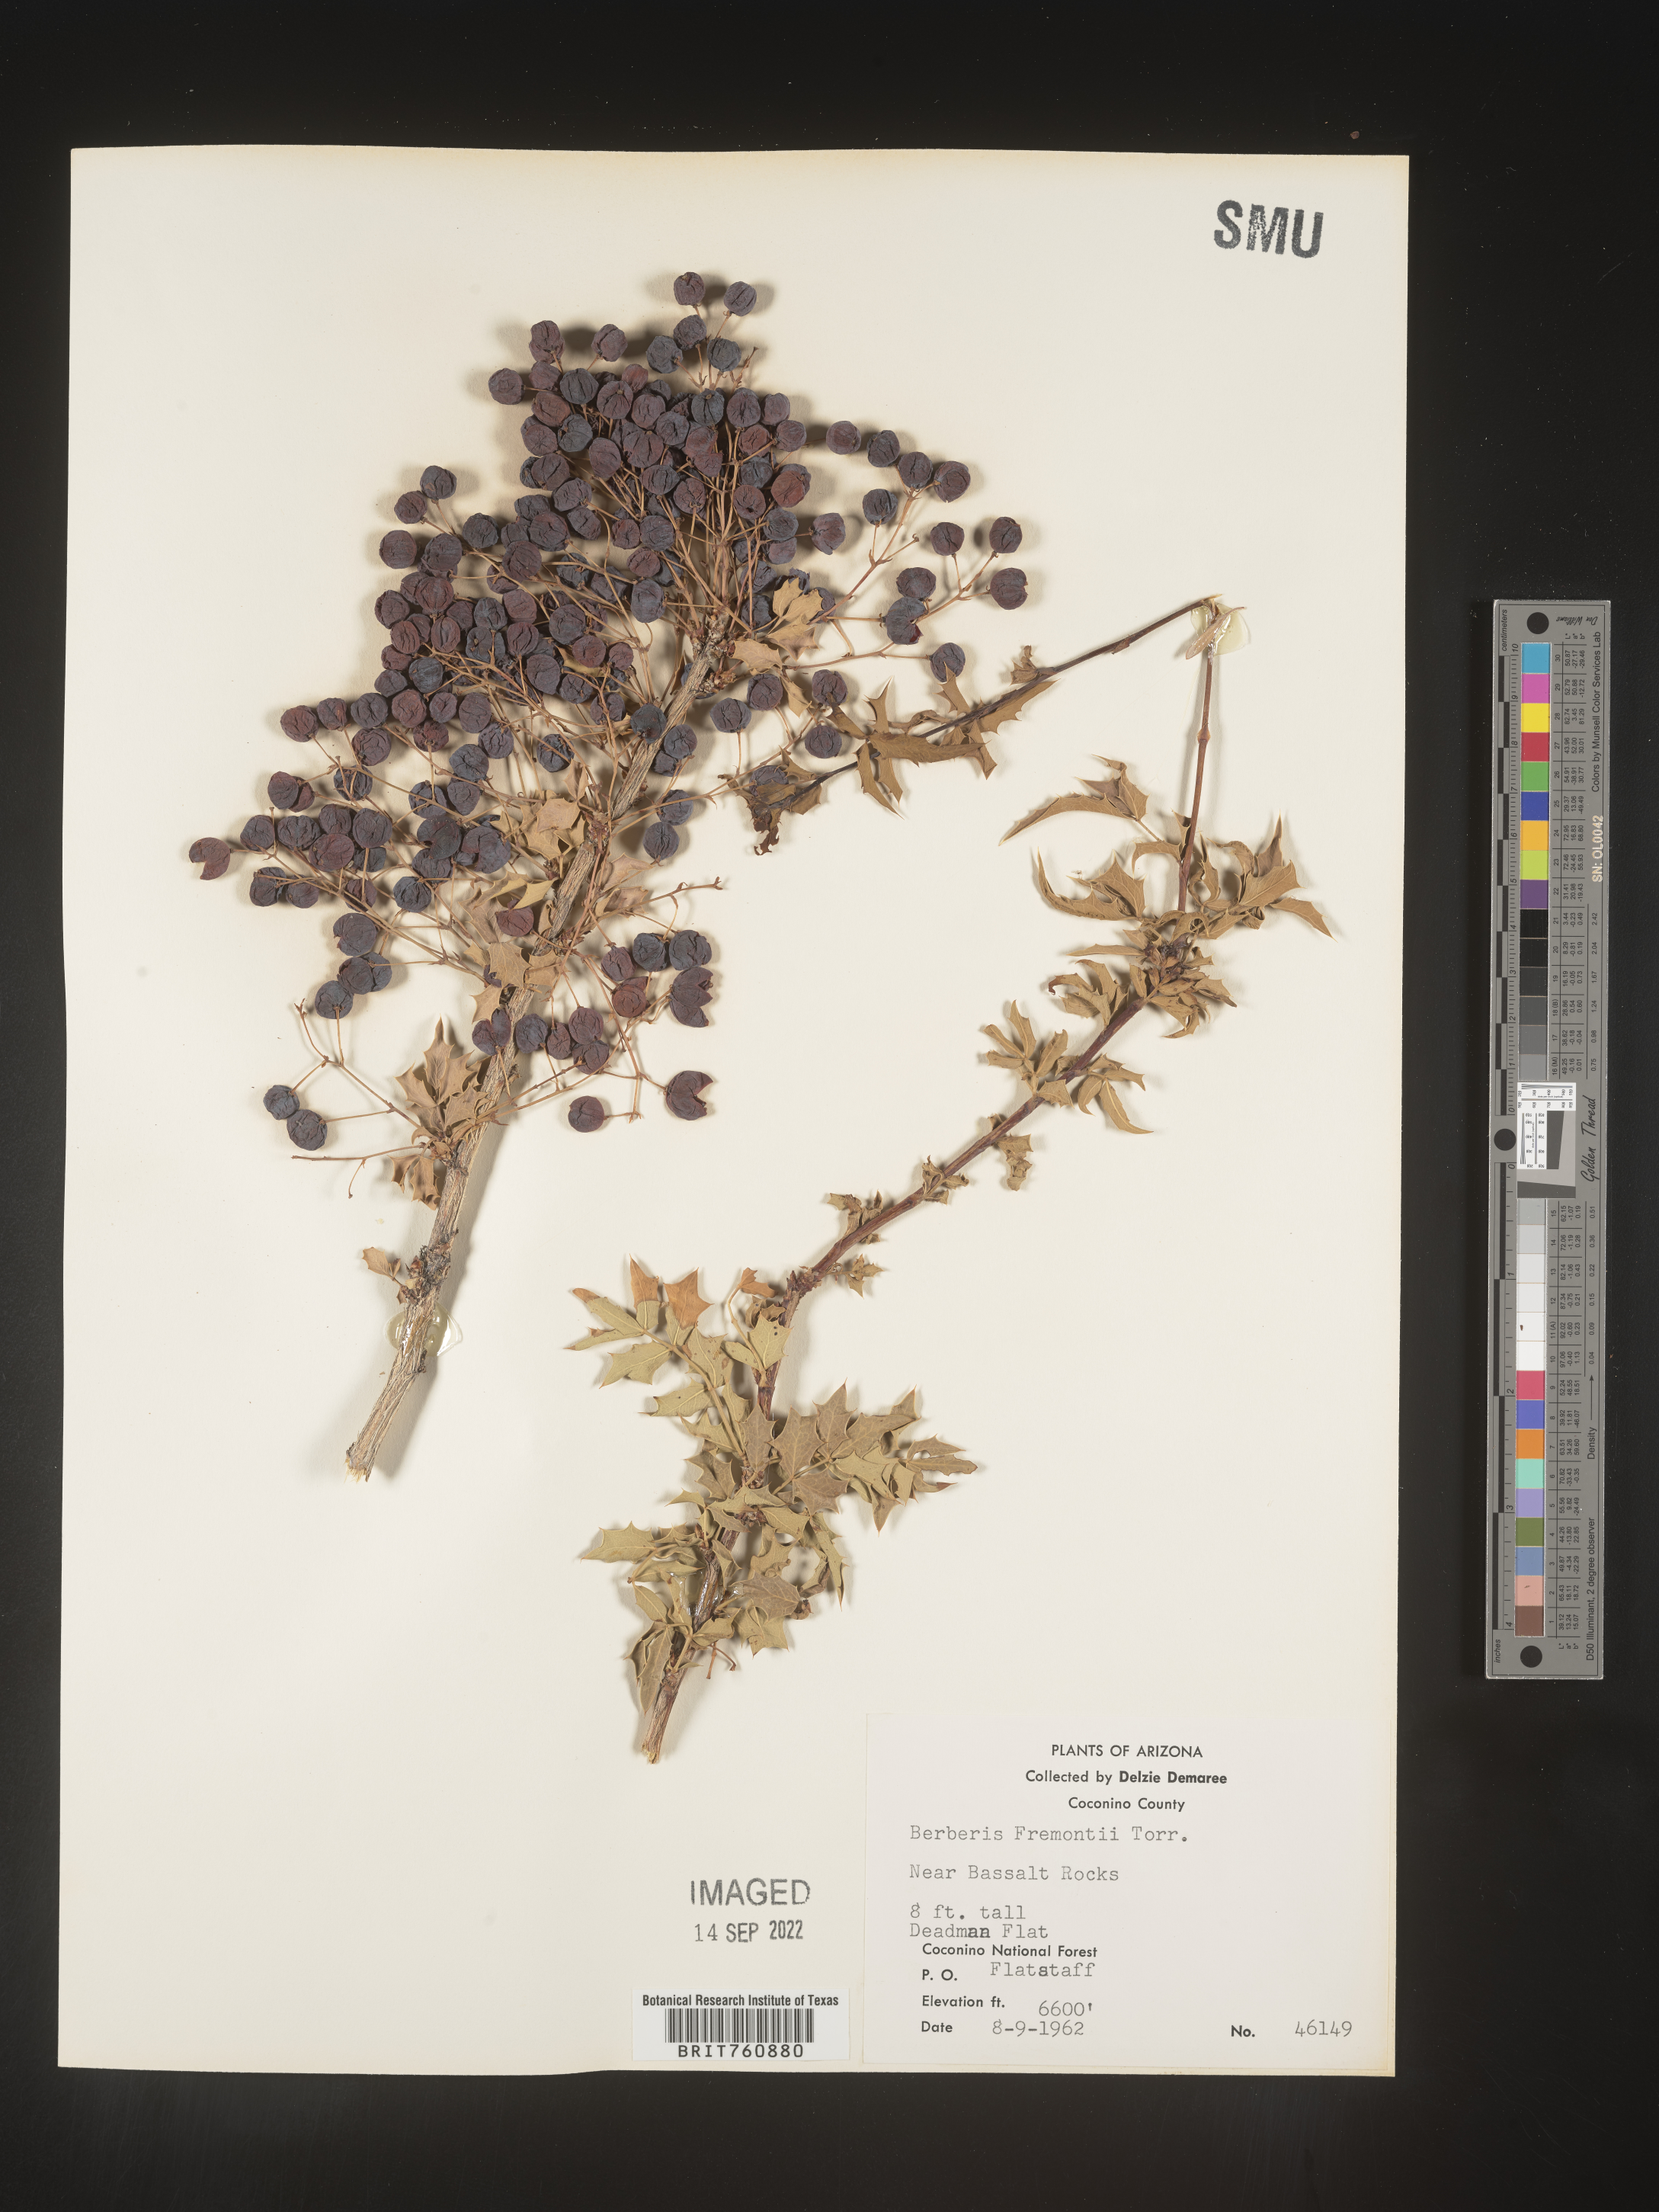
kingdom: Plantae
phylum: Tracheophyta
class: Magnoliopsida
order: Ranunculales
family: Berberidaceae
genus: Mahonia
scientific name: Mahonia
